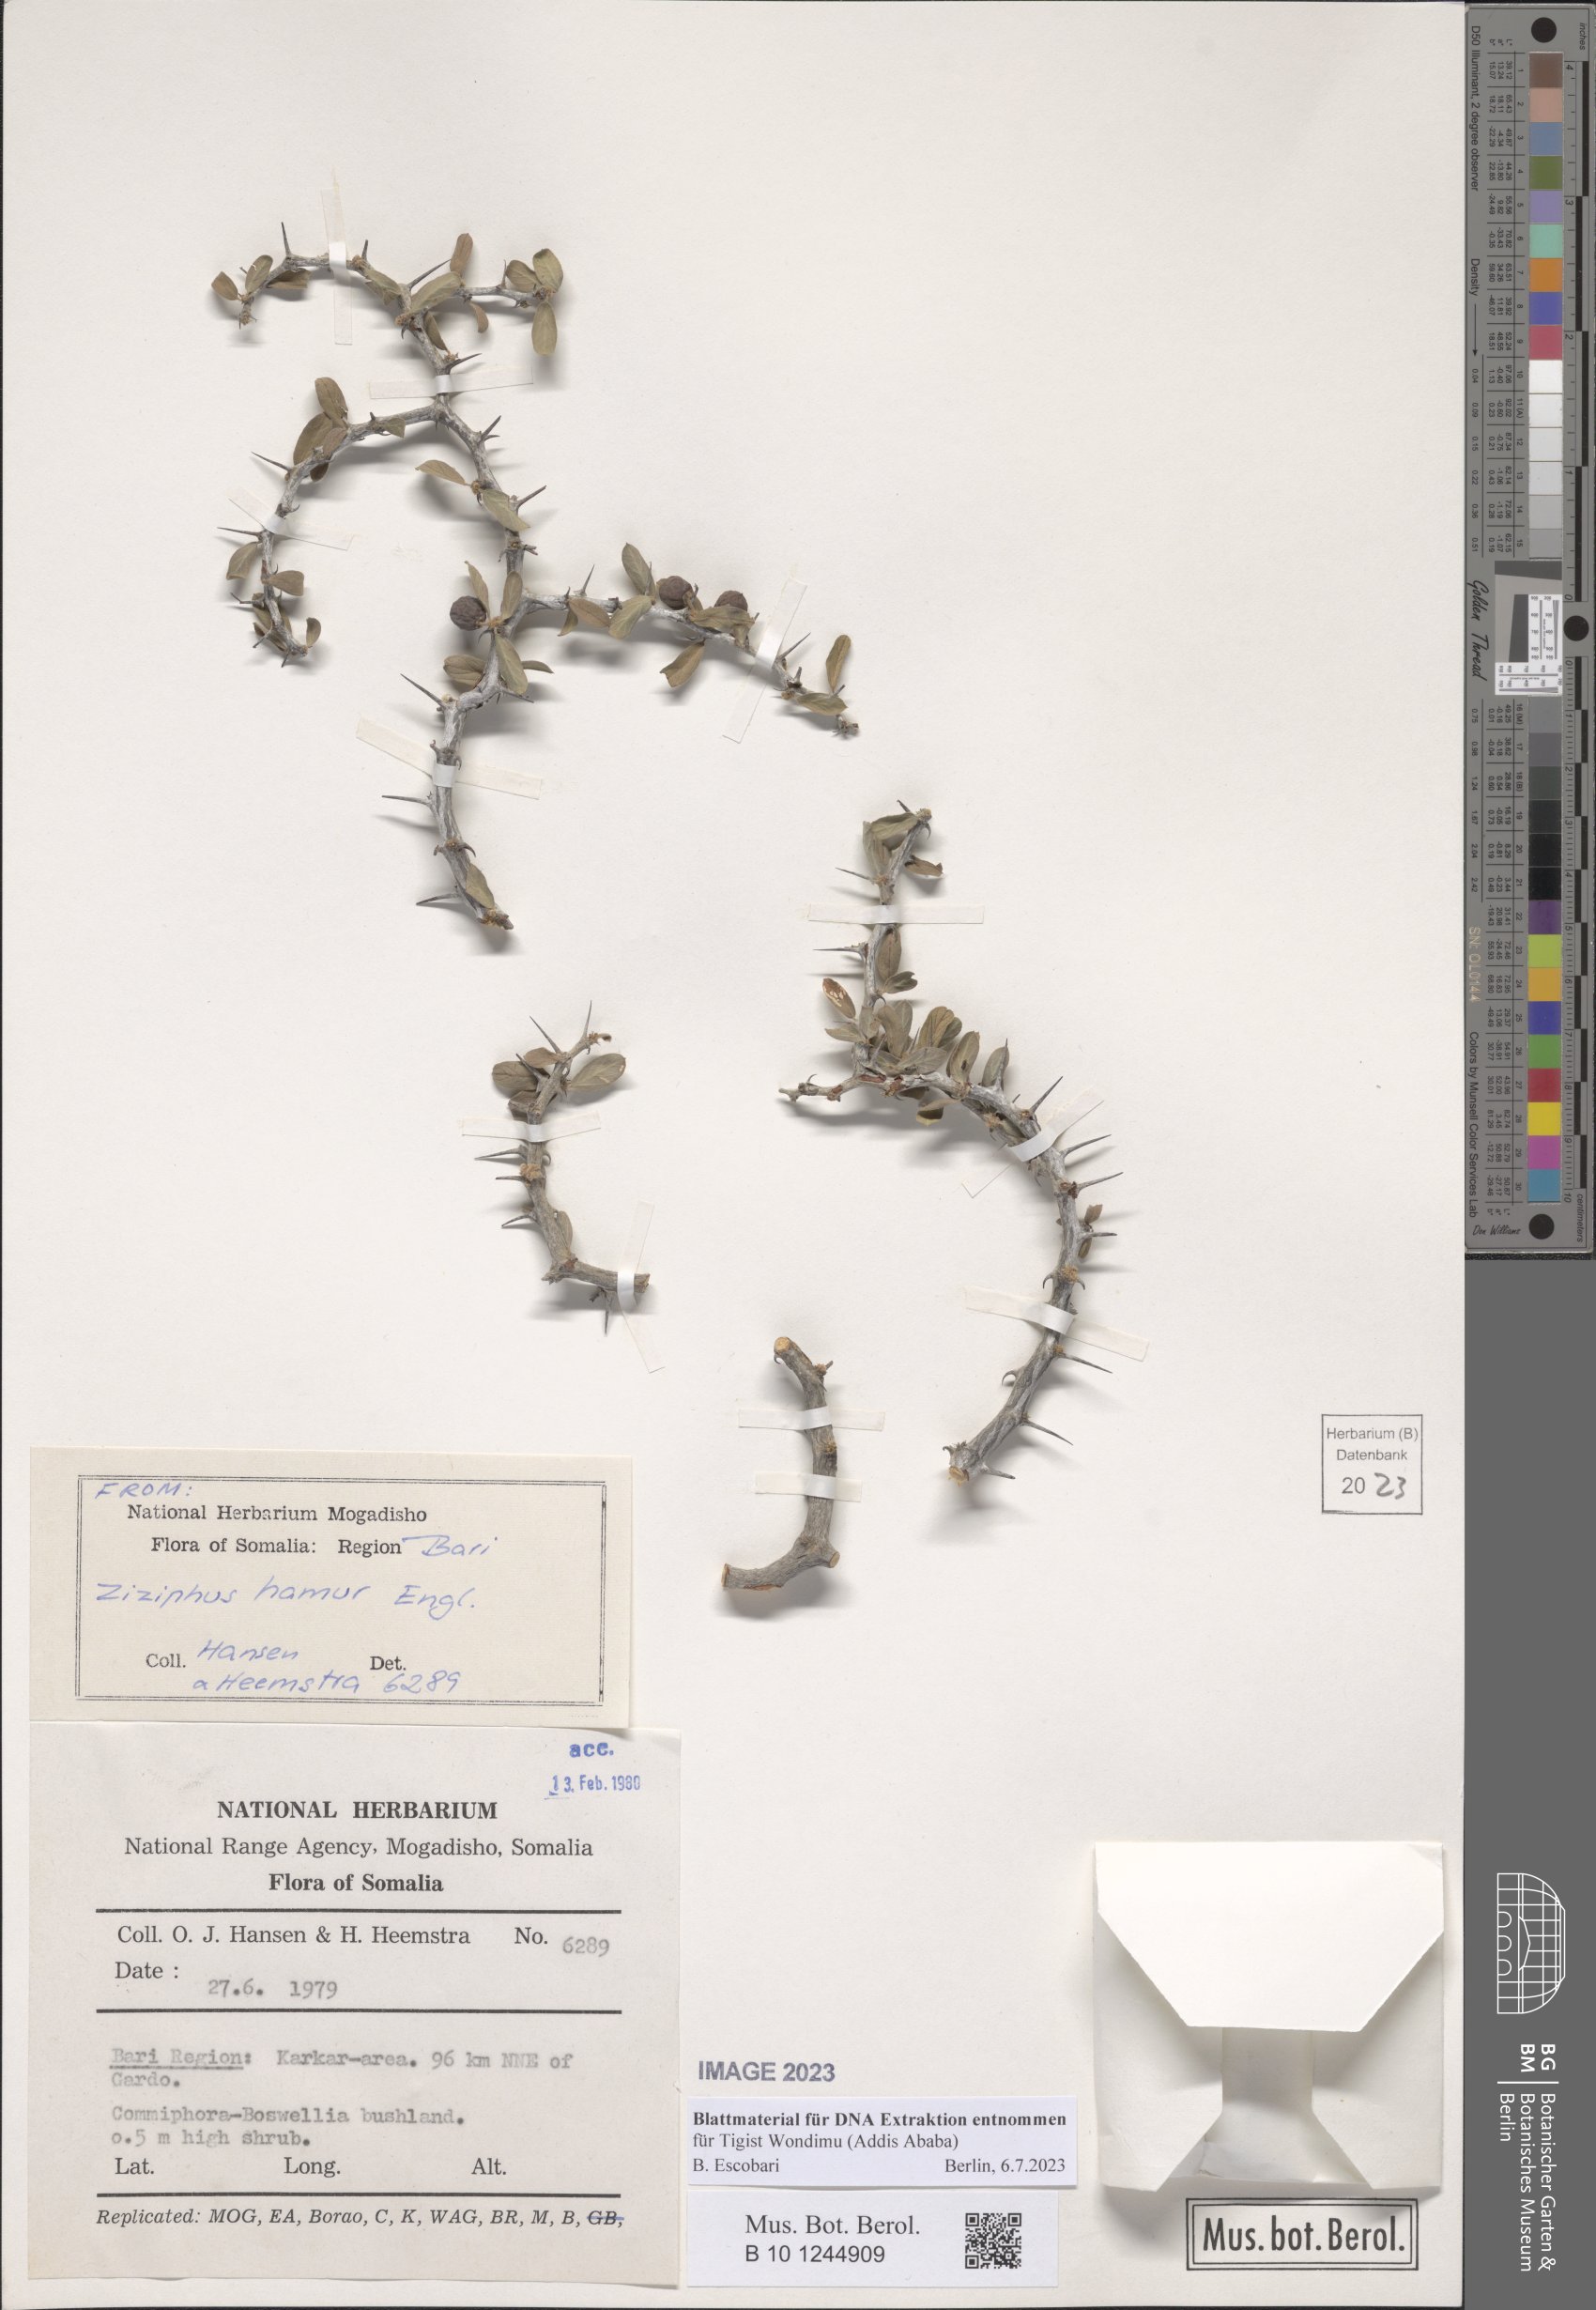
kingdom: Plantae
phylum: Tracheophyta
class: Magnoliopsida
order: Rosales
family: Rhamnaceae
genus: Ziziphus
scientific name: Ziziphus hamur
